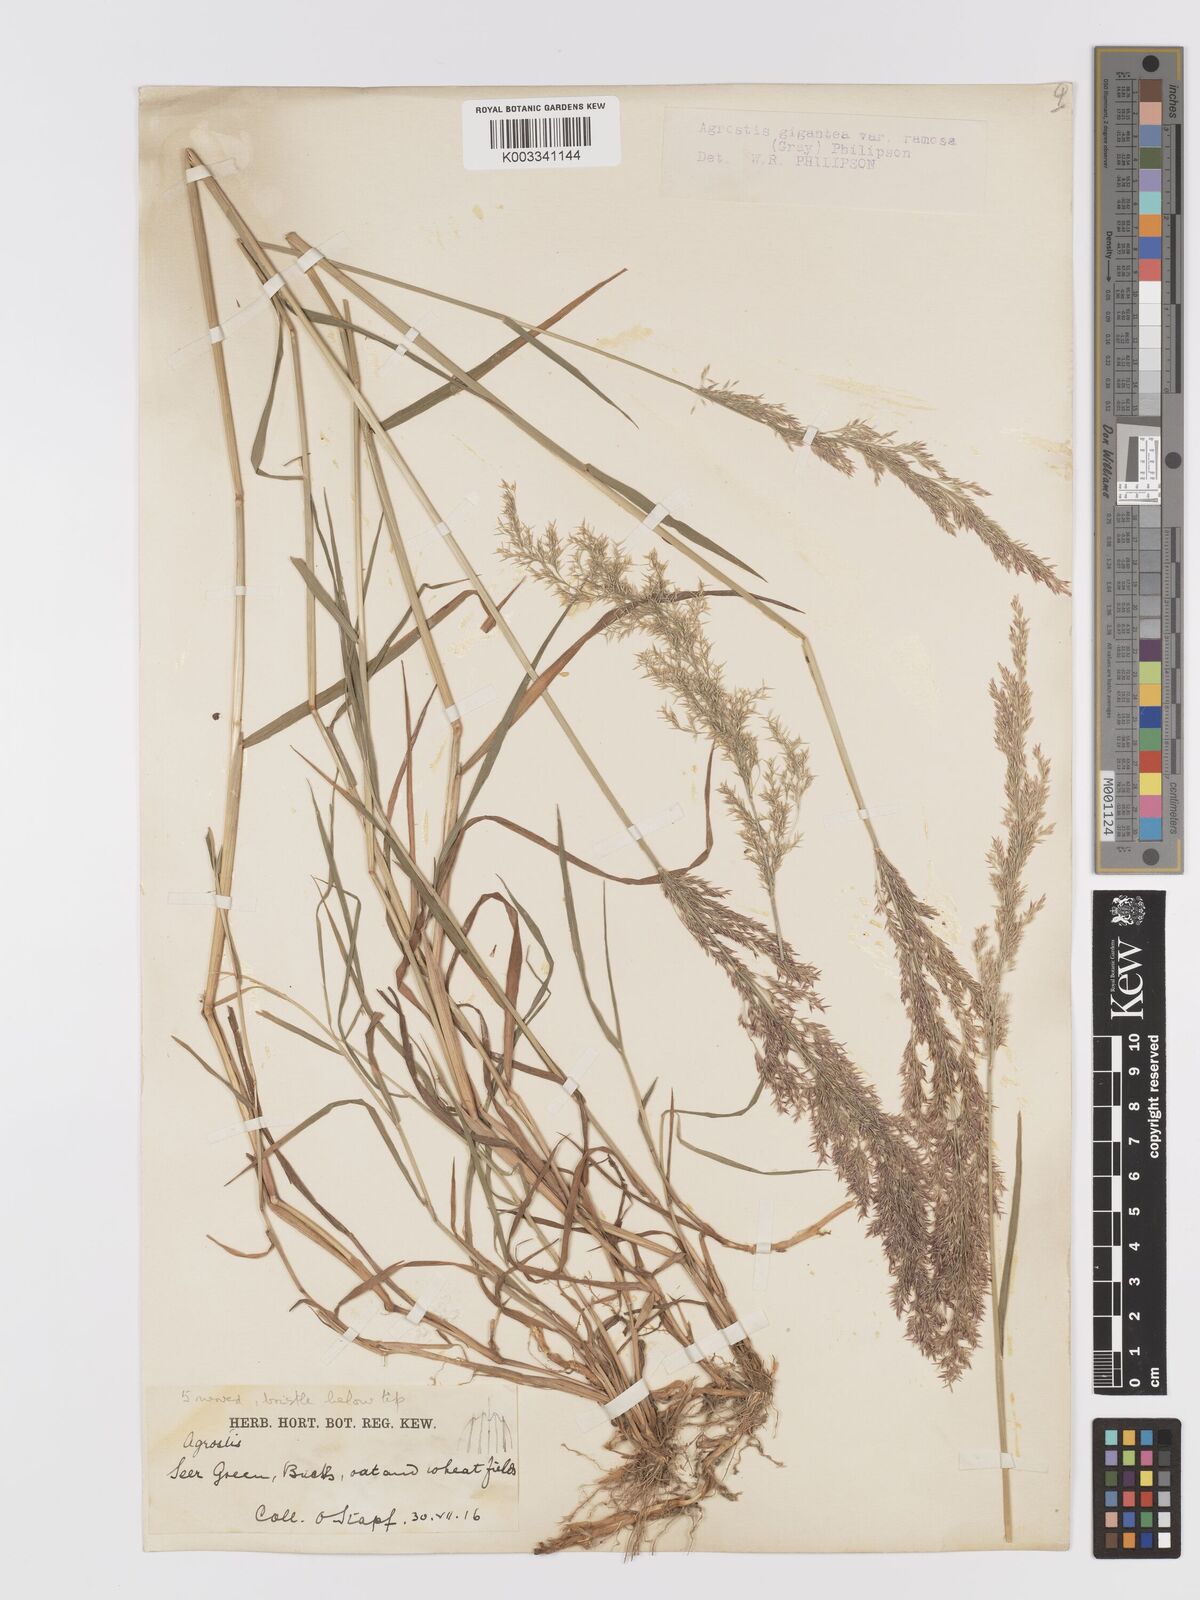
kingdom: Plantae
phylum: Tracheophyta
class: Liliopsida
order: Poales
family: Poaceae
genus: Agrostis
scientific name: Agrostis gigantea
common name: Black bent
